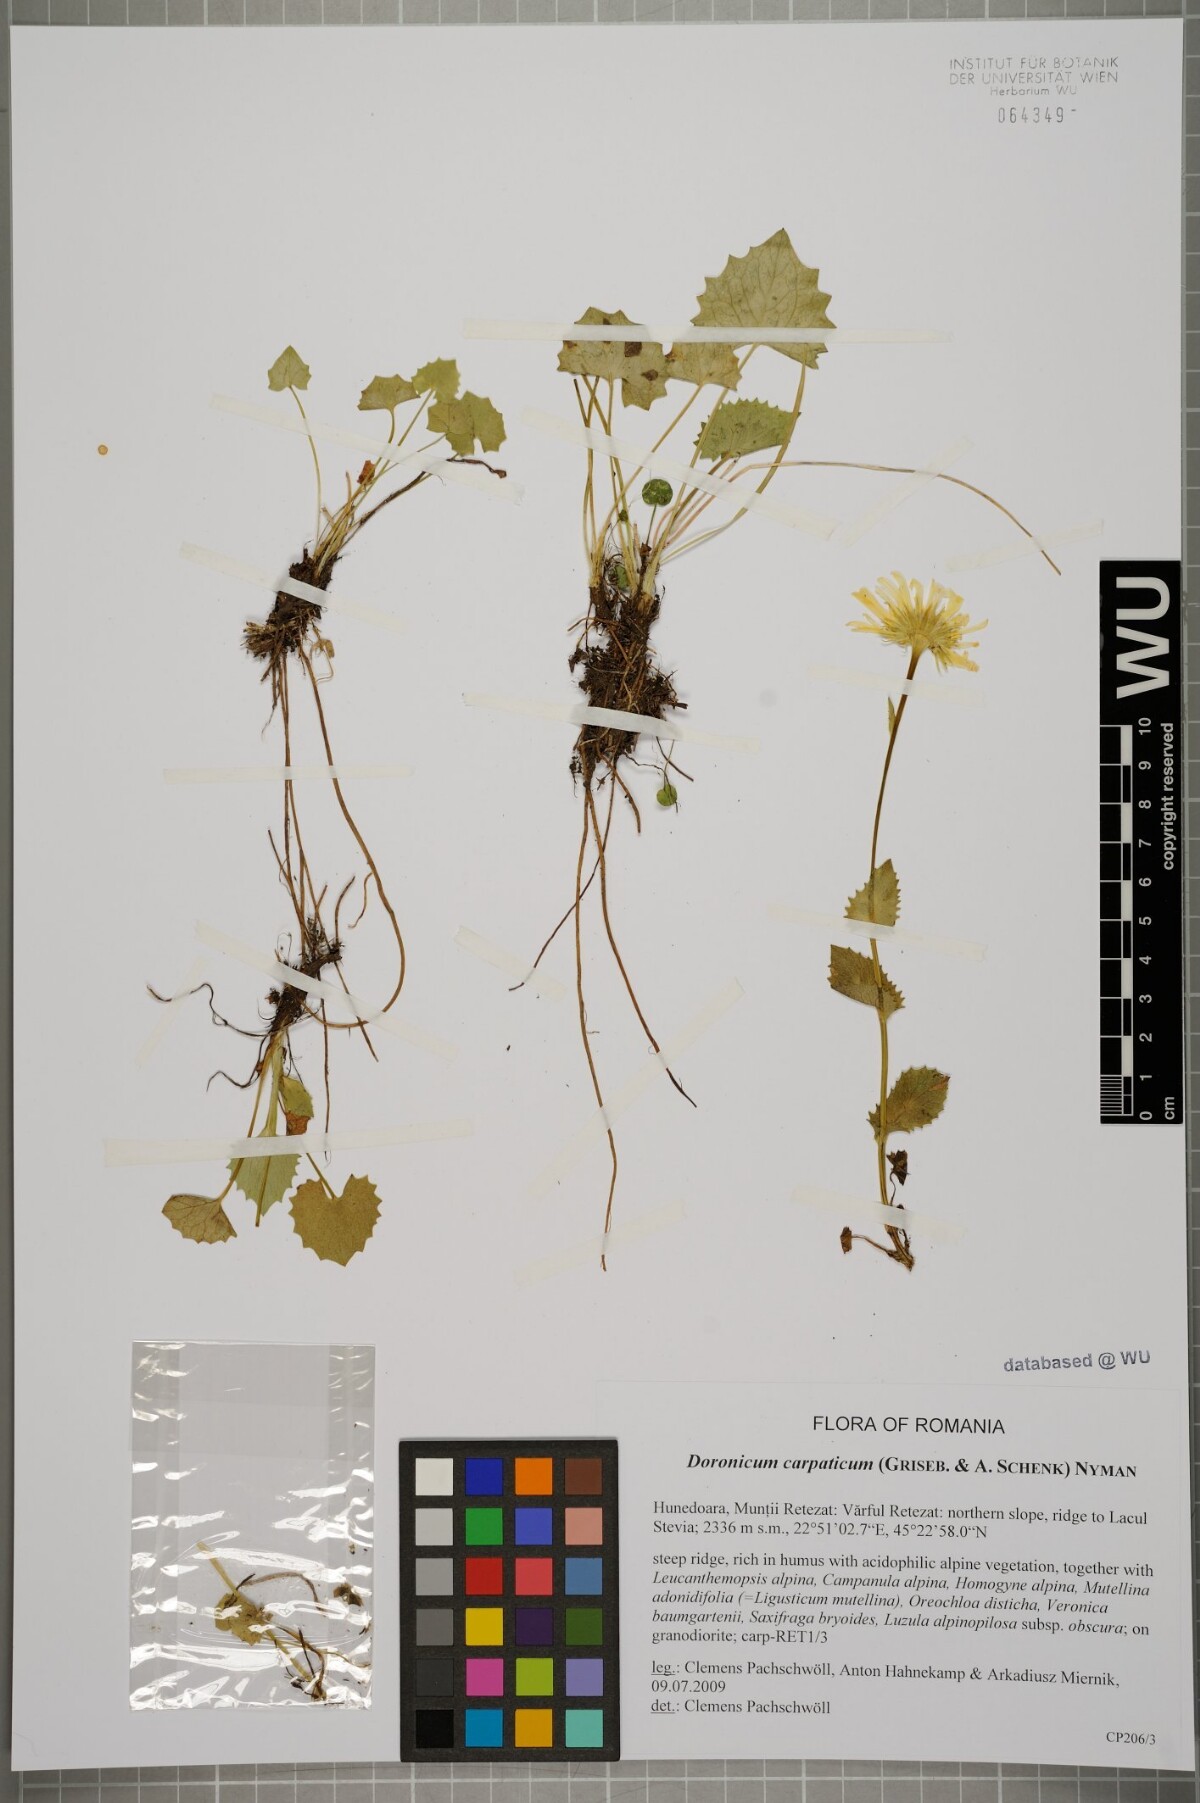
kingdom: Plantae
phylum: Tracheophyta
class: Magnoliopsida
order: Asterales
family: Asteraceae
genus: Doronicum
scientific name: Doronicum carpaticum
